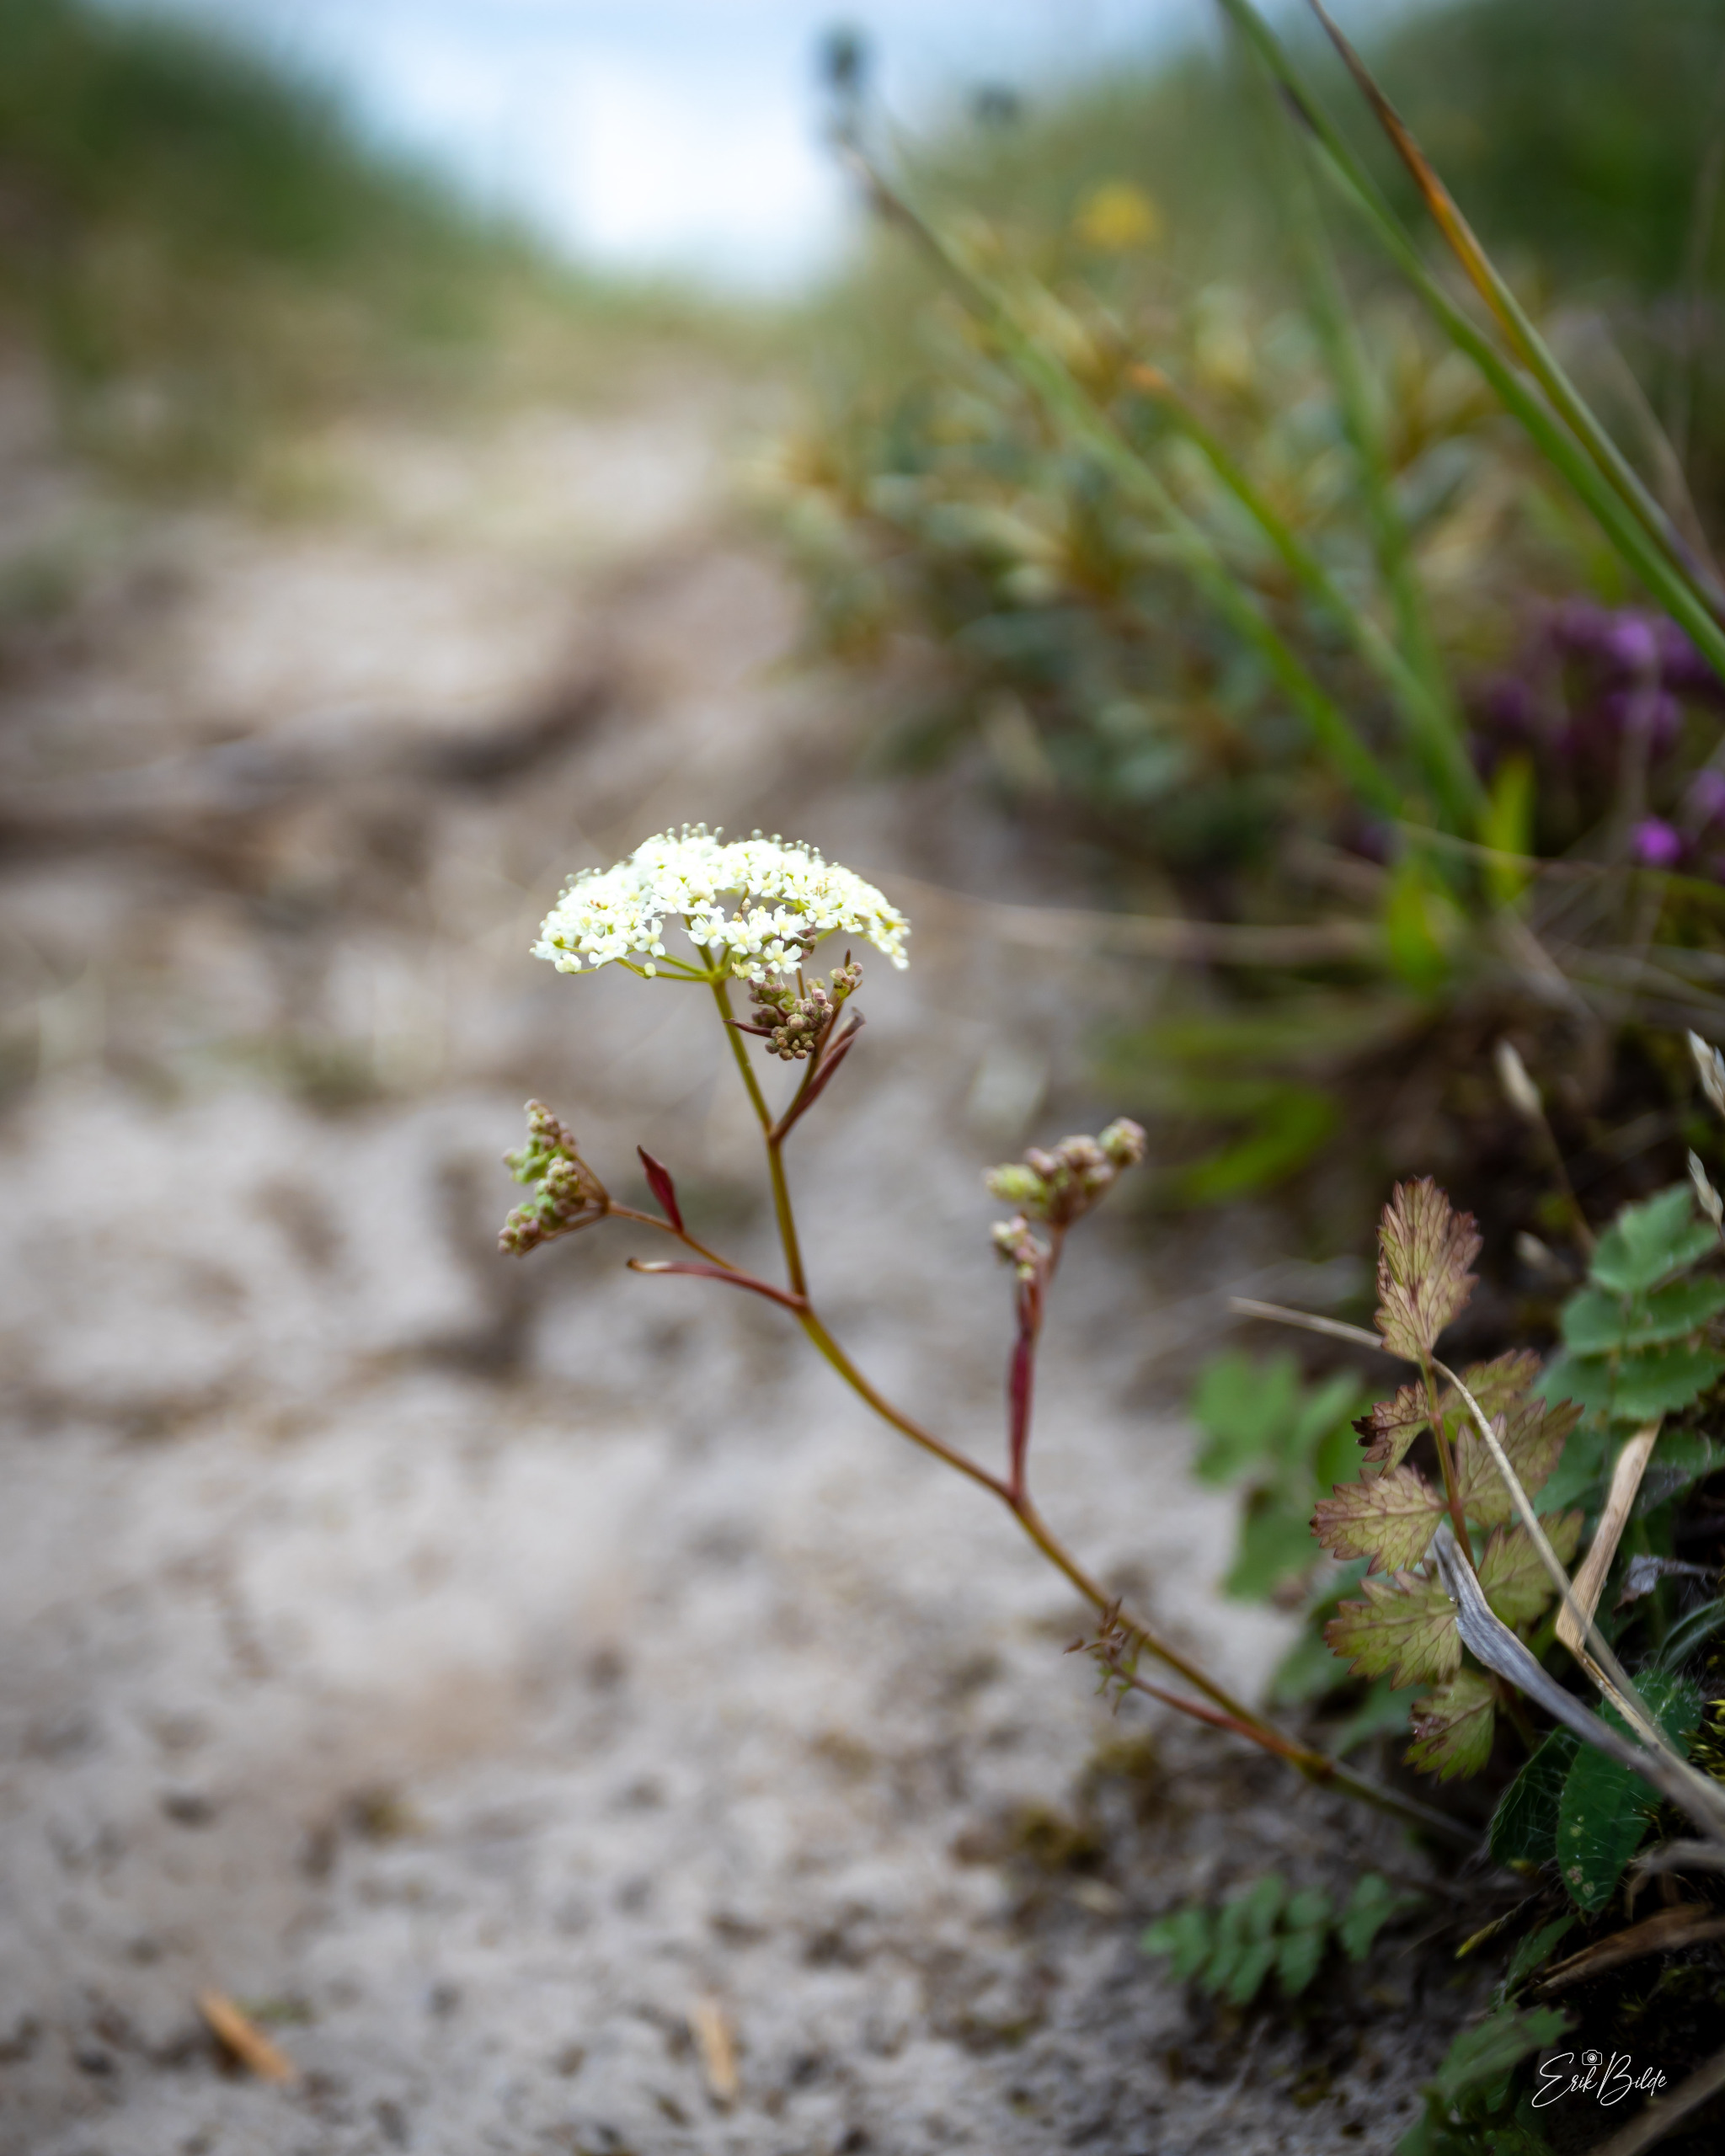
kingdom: Plantae
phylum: Tracheophyta
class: Magnoliopsida
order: Apiales
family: Apiaceae
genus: Pimpinella
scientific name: Pimpinella saxifraga
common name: Almindelig pimpinelle
